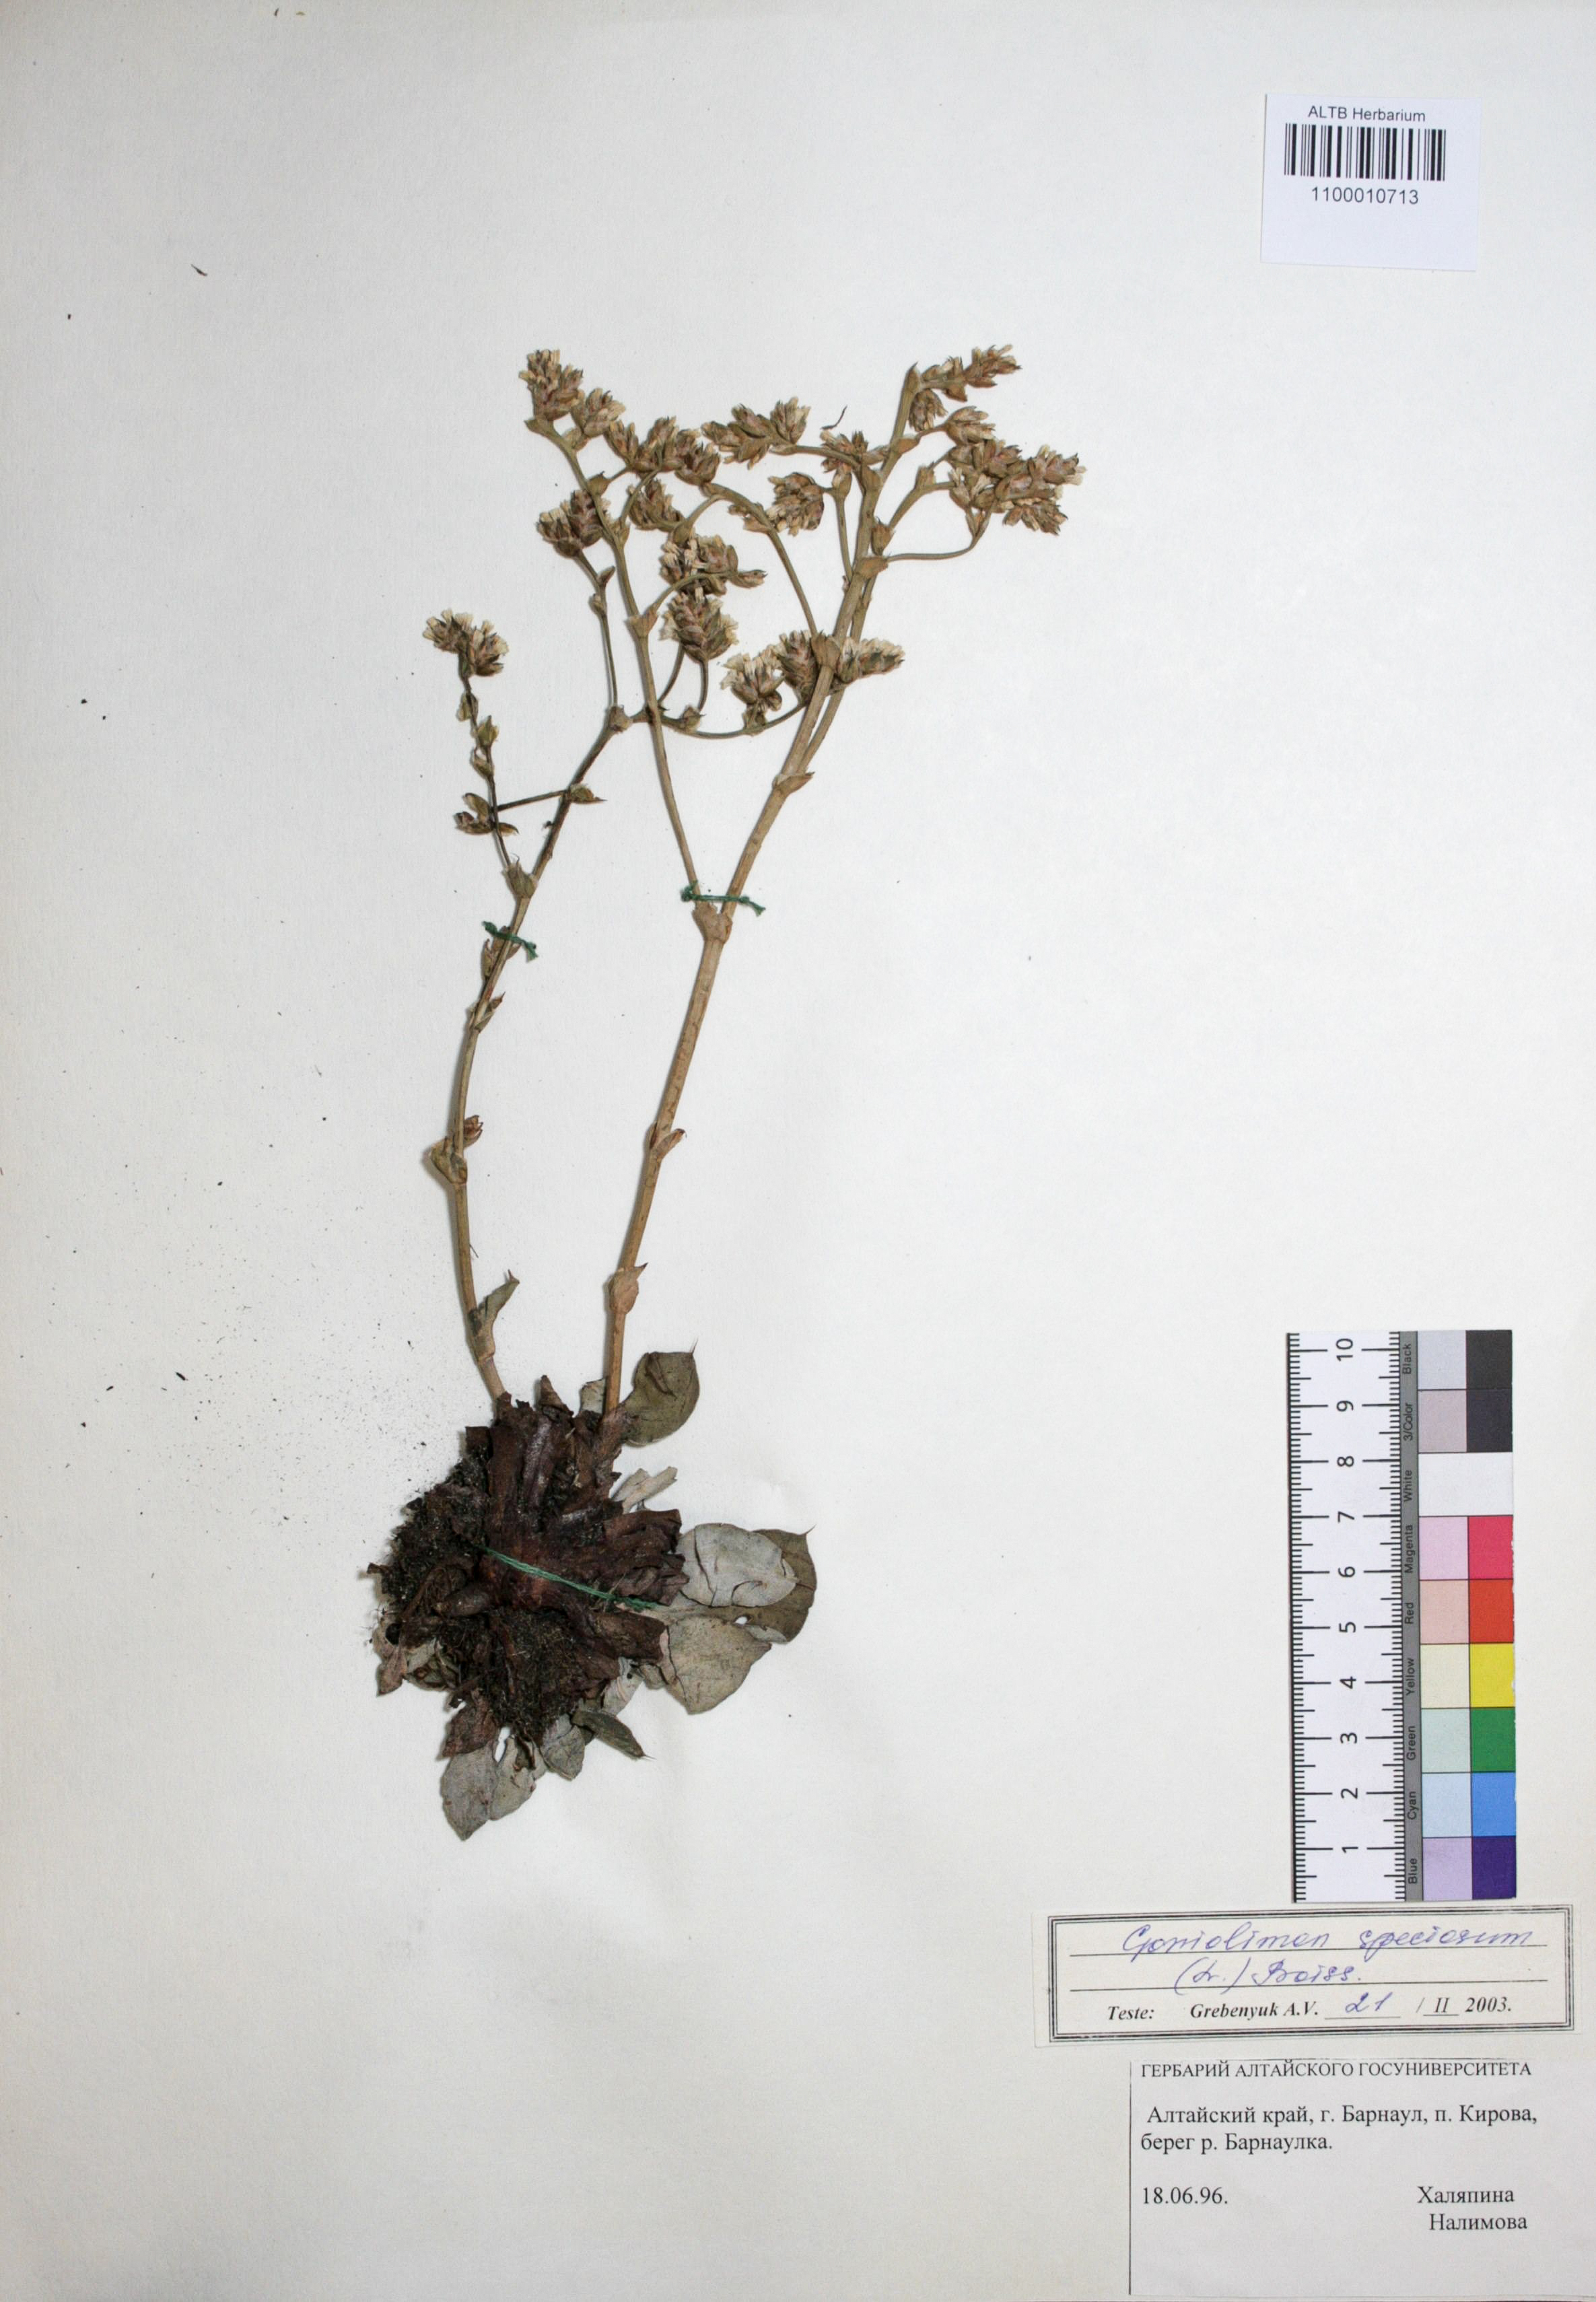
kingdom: Plantae
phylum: Tracheophyta
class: Magnoliopsida
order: Caryophyllales
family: Plumbaginaceae
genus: Goniolimon
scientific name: Goniolimon speciosum
